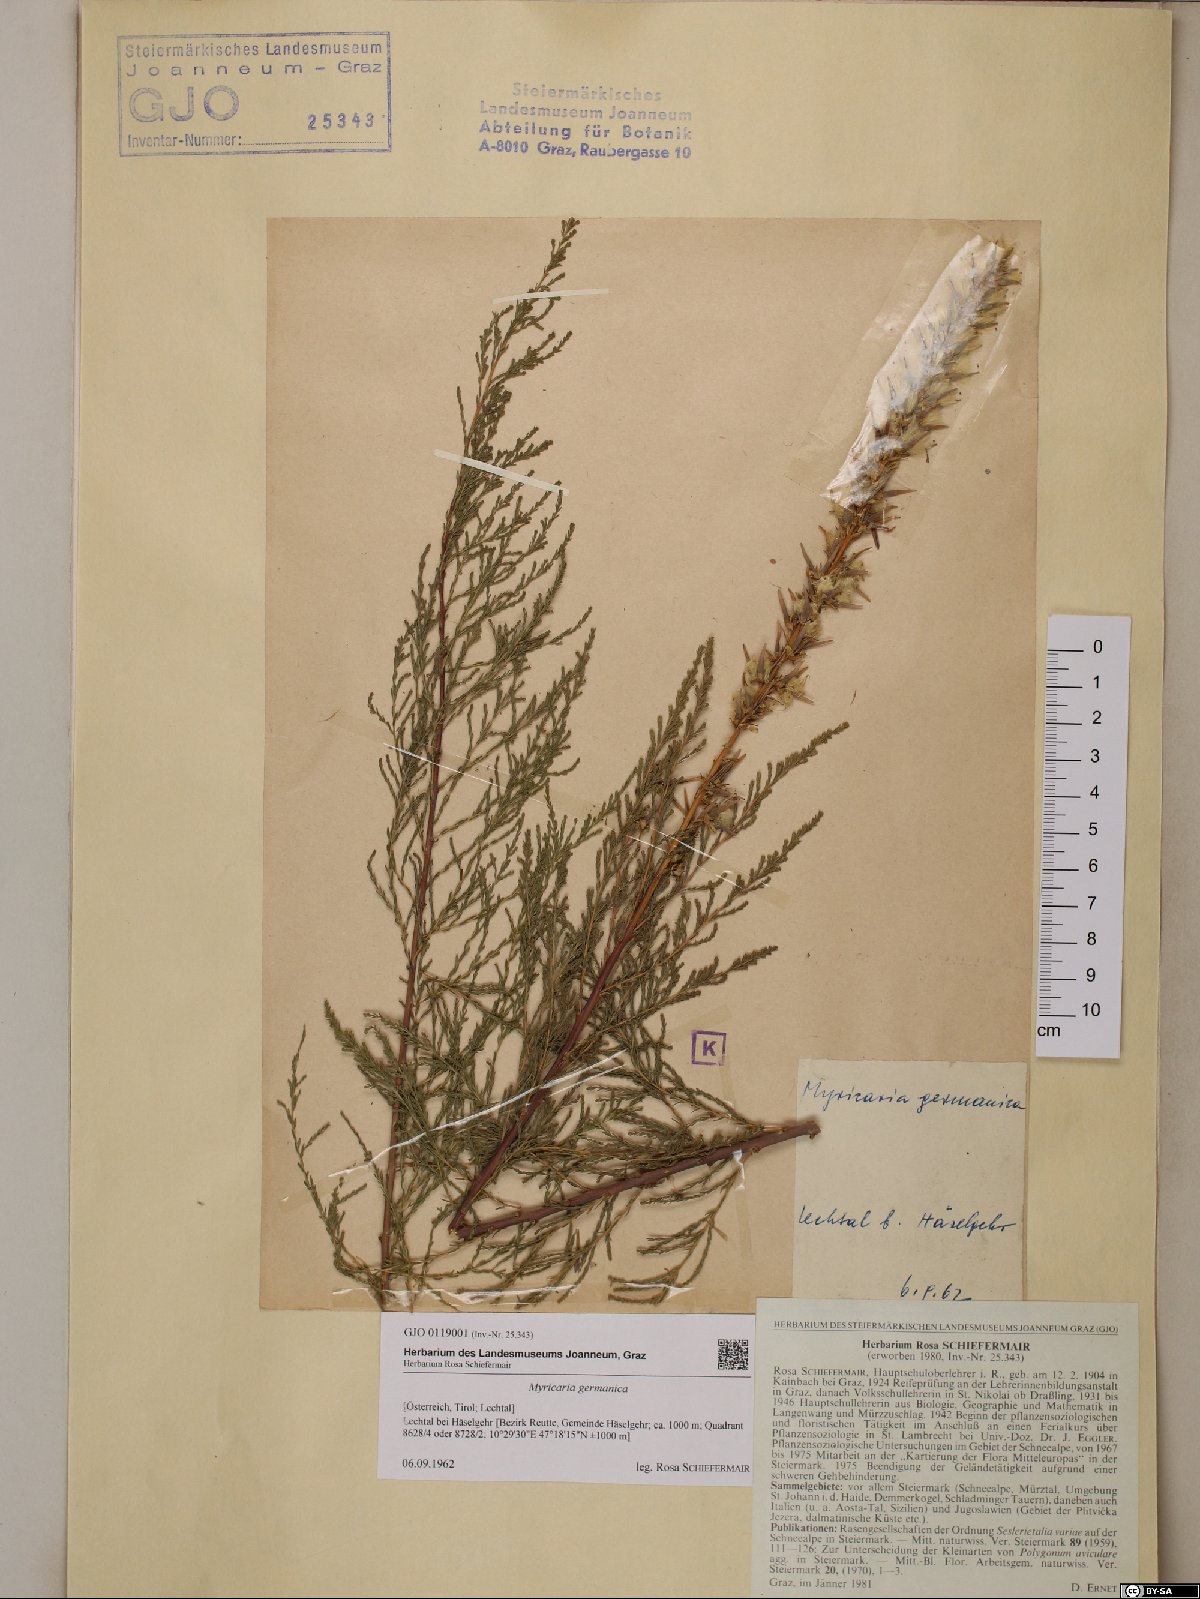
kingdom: Plantae
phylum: Tracheophyta
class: Magnoliopsida
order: Caryophyllales
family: Tamaricaceae
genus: Myricaria
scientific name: Myricaria germanica
